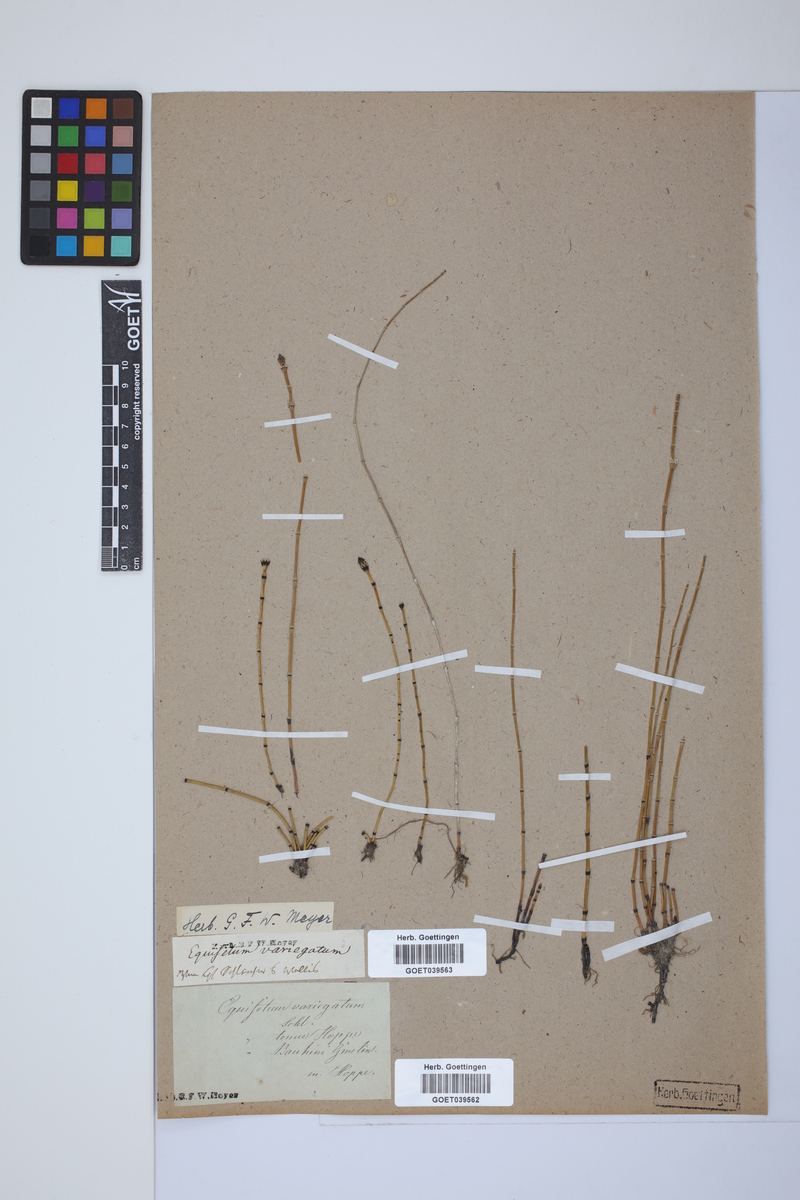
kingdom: Plantae
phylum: Tracheophyta
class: Polypodiopsida
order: Equisetales
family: Equisetaceae
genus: Equisetum
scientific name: Equisetum variegatum
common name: Variegated horsetail
